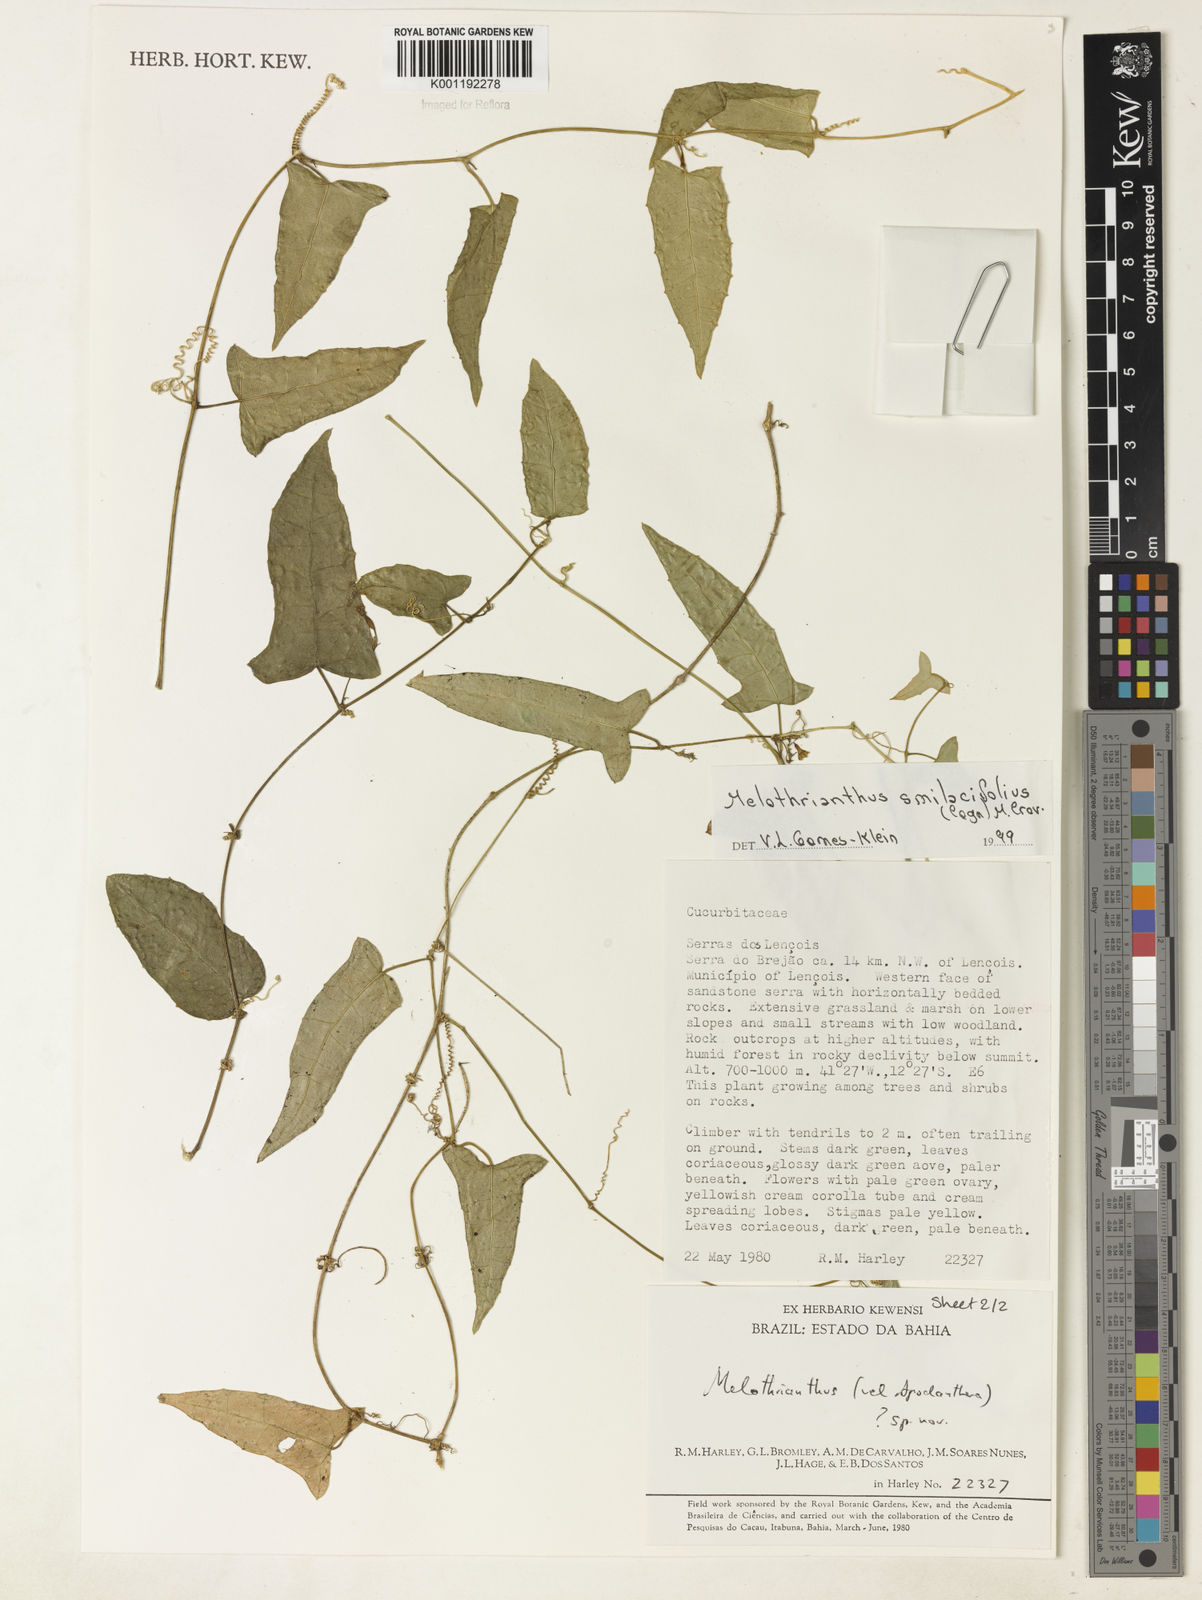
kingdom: Plantae
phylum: Tracheophyta
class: Magnoliopsida
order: Cucurbitales
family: Cucurbitaceae
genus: Apodanthera
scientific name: Apodanthera smilacifolia
